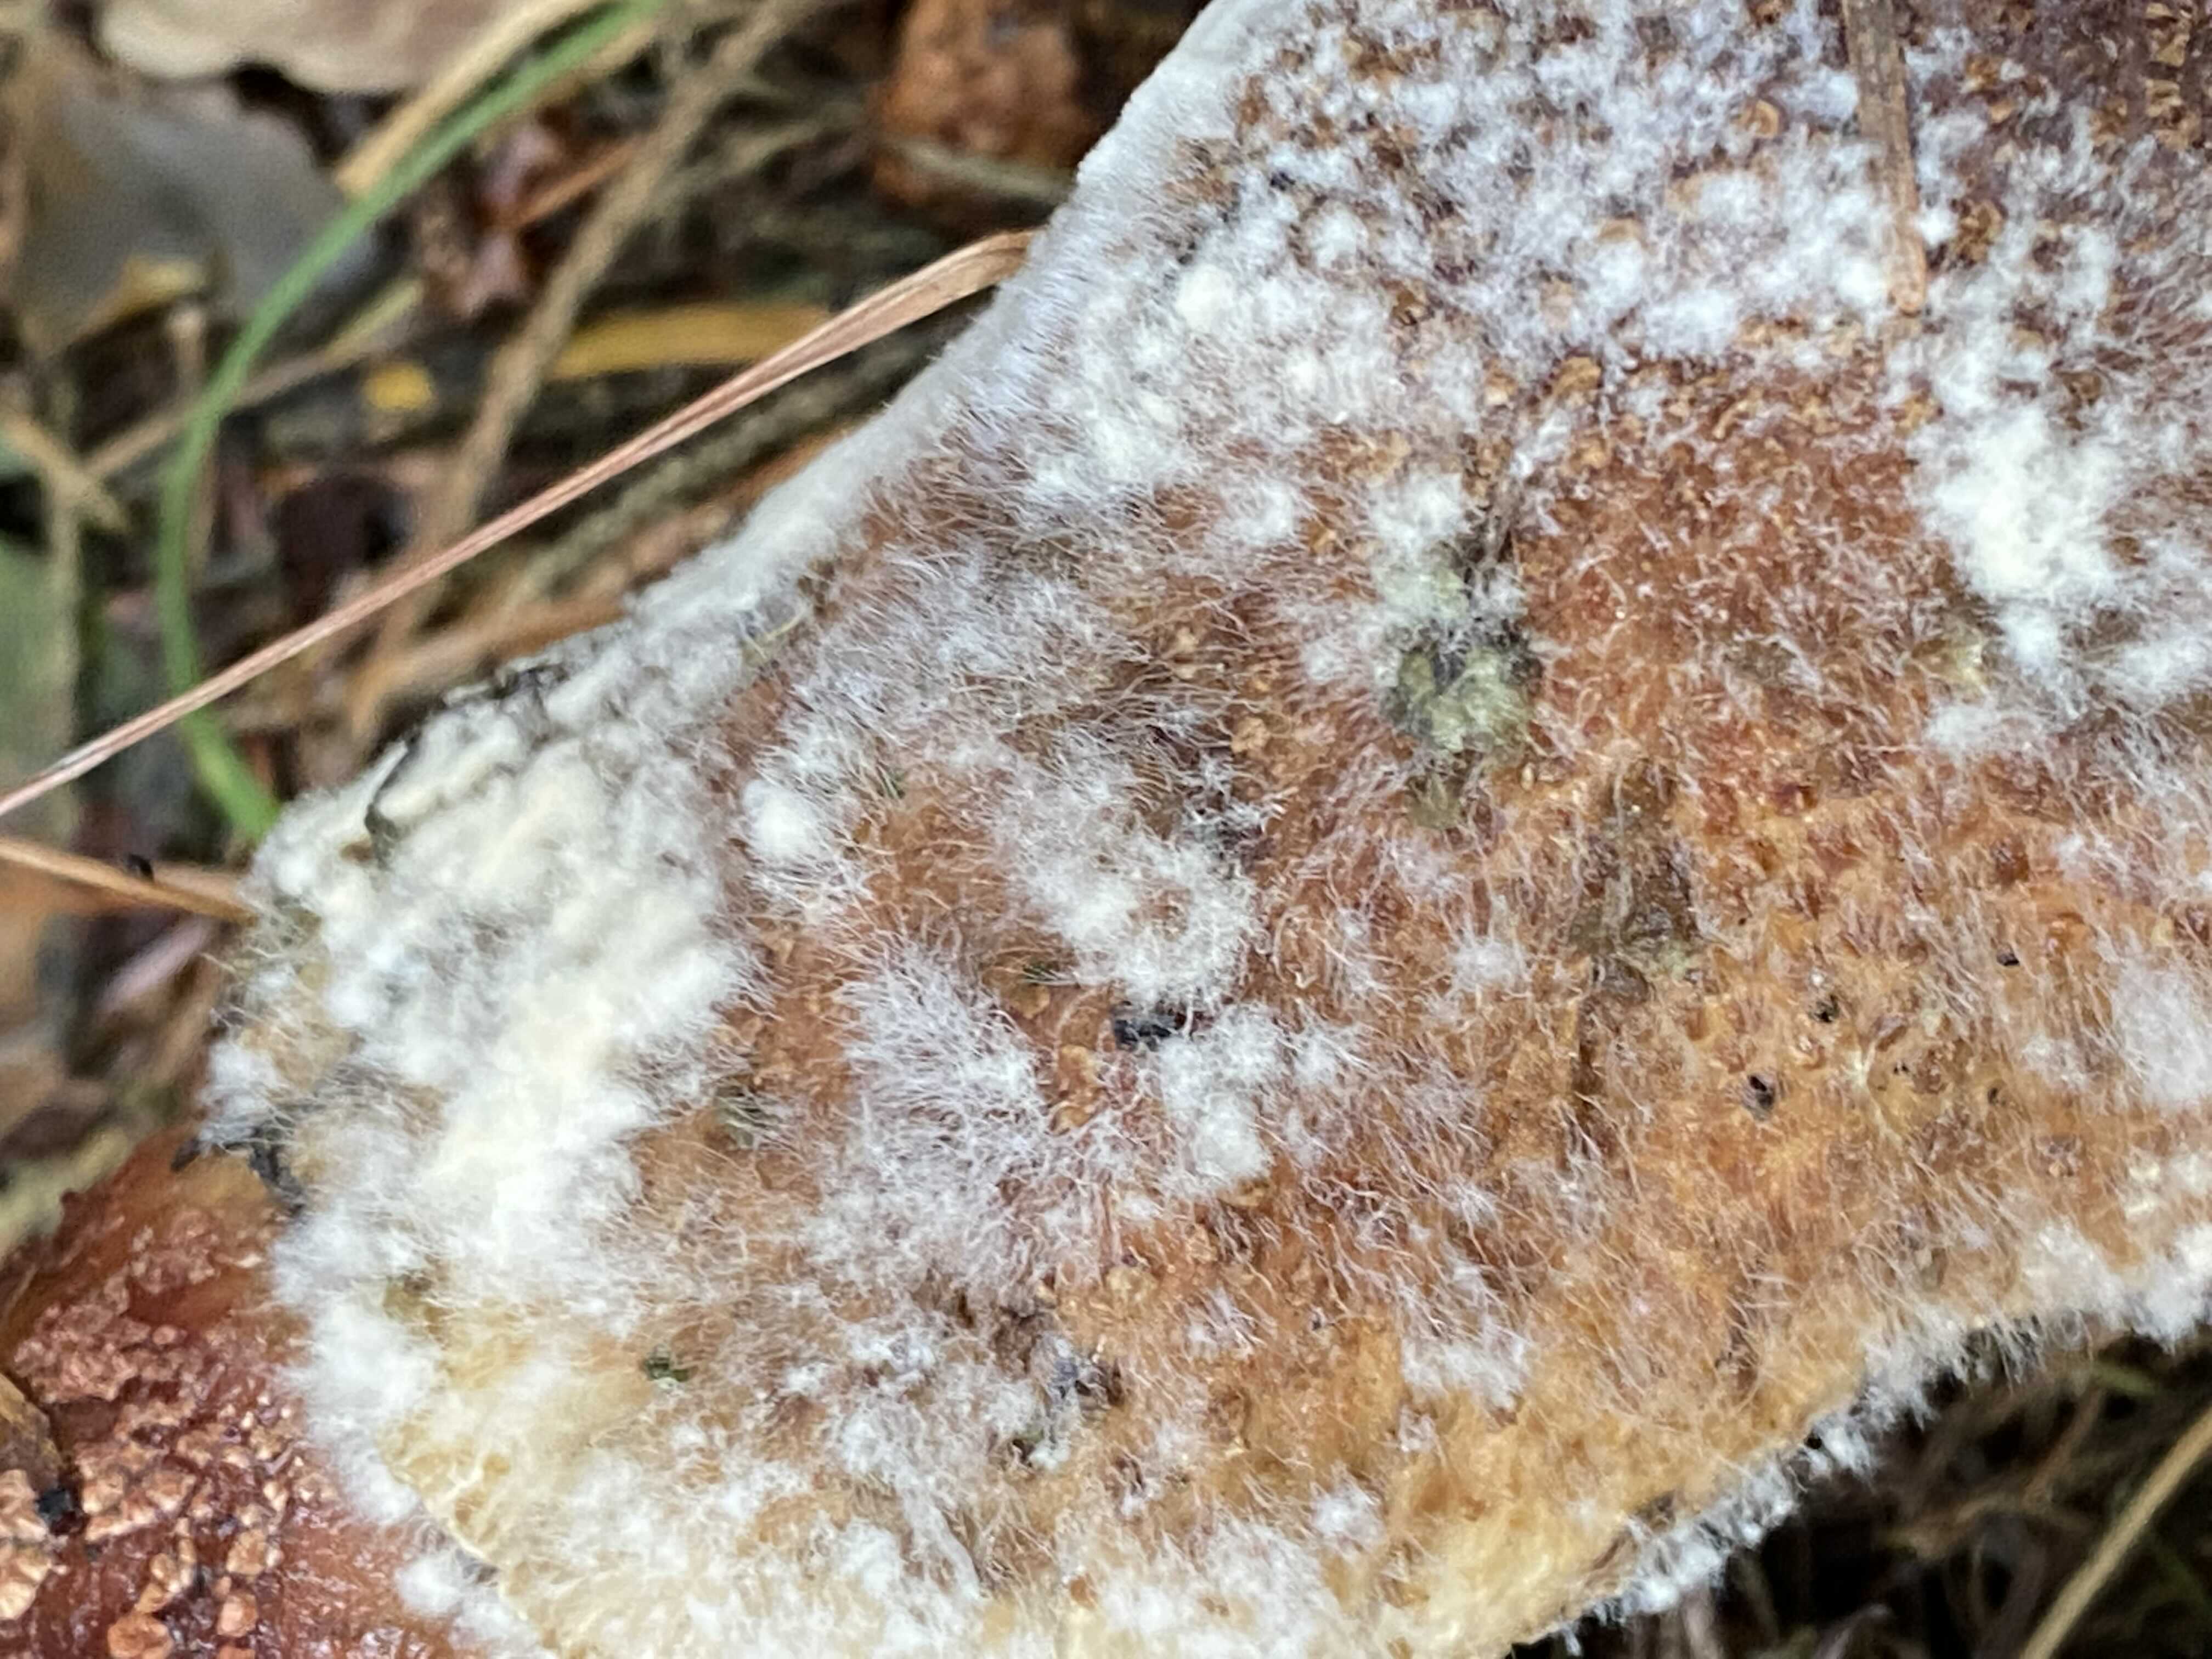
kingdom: Fungi
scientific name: Fungi
